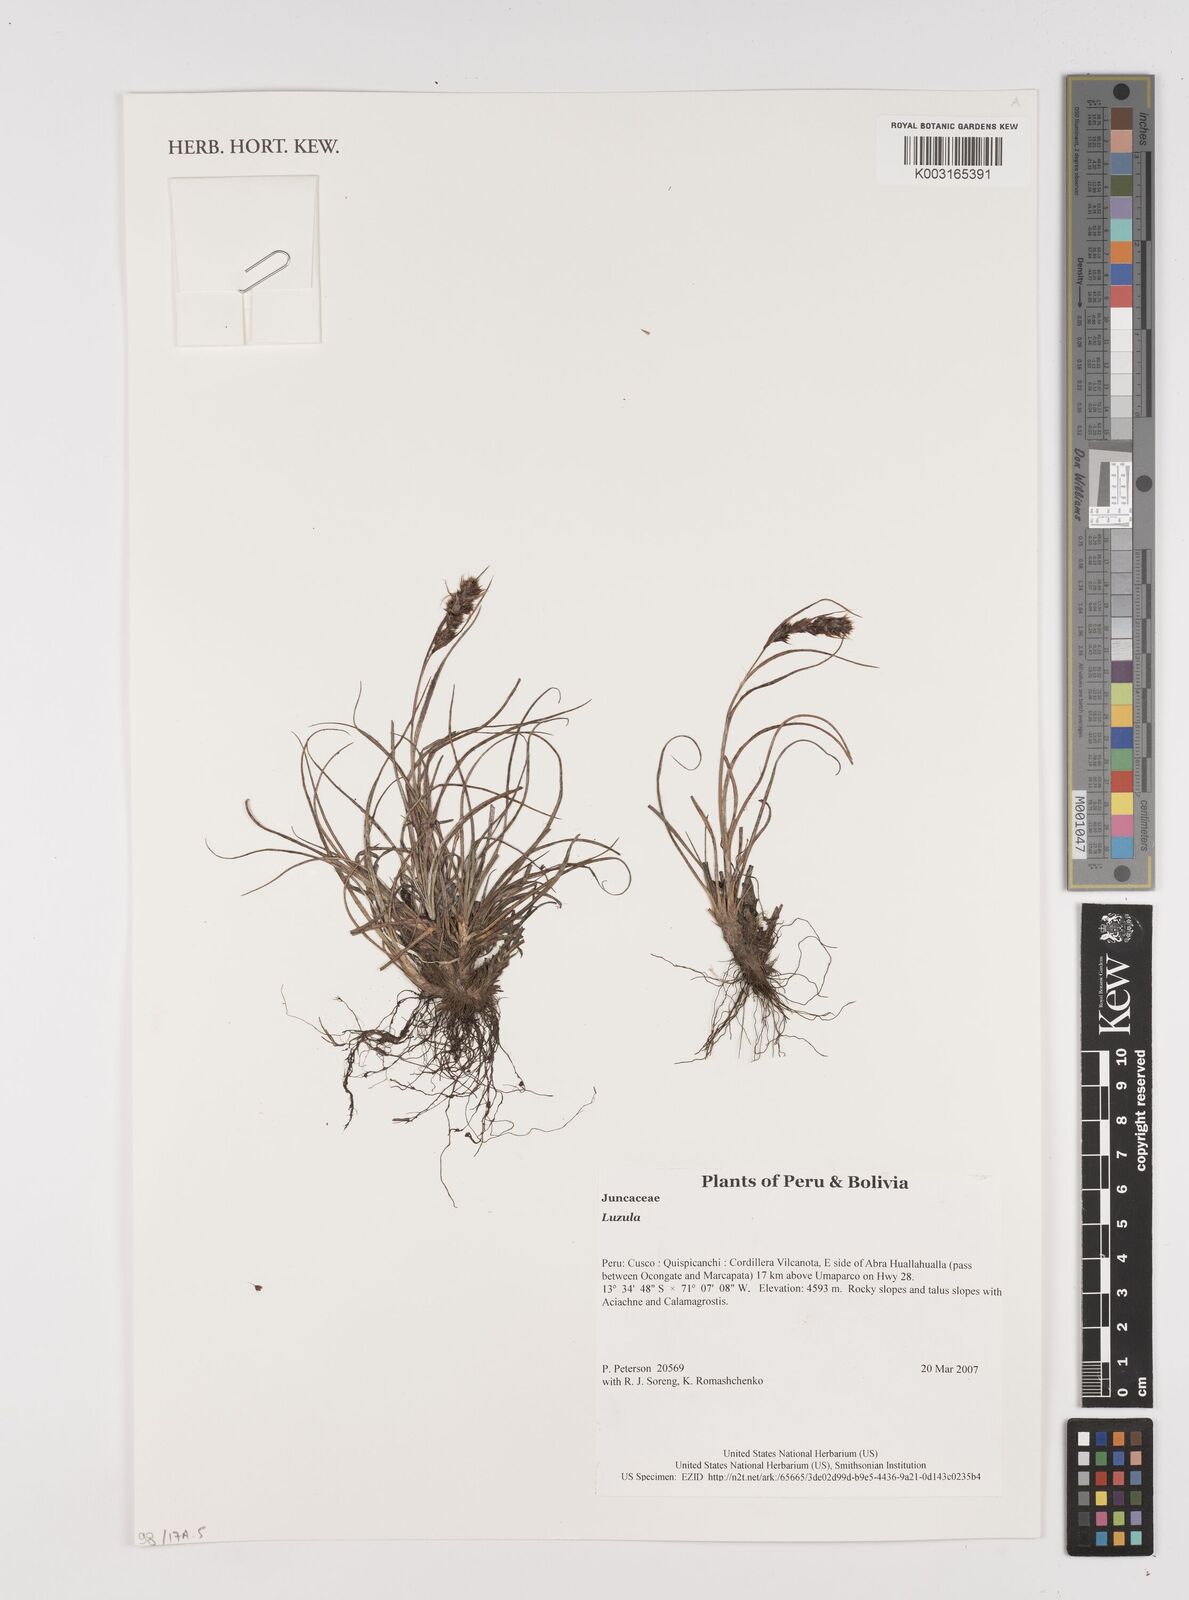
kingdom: Plantae
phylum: Tracheophyta
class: Liliopsida
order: Poales
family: Juncaceae
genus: Luzula
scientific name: Luzula
